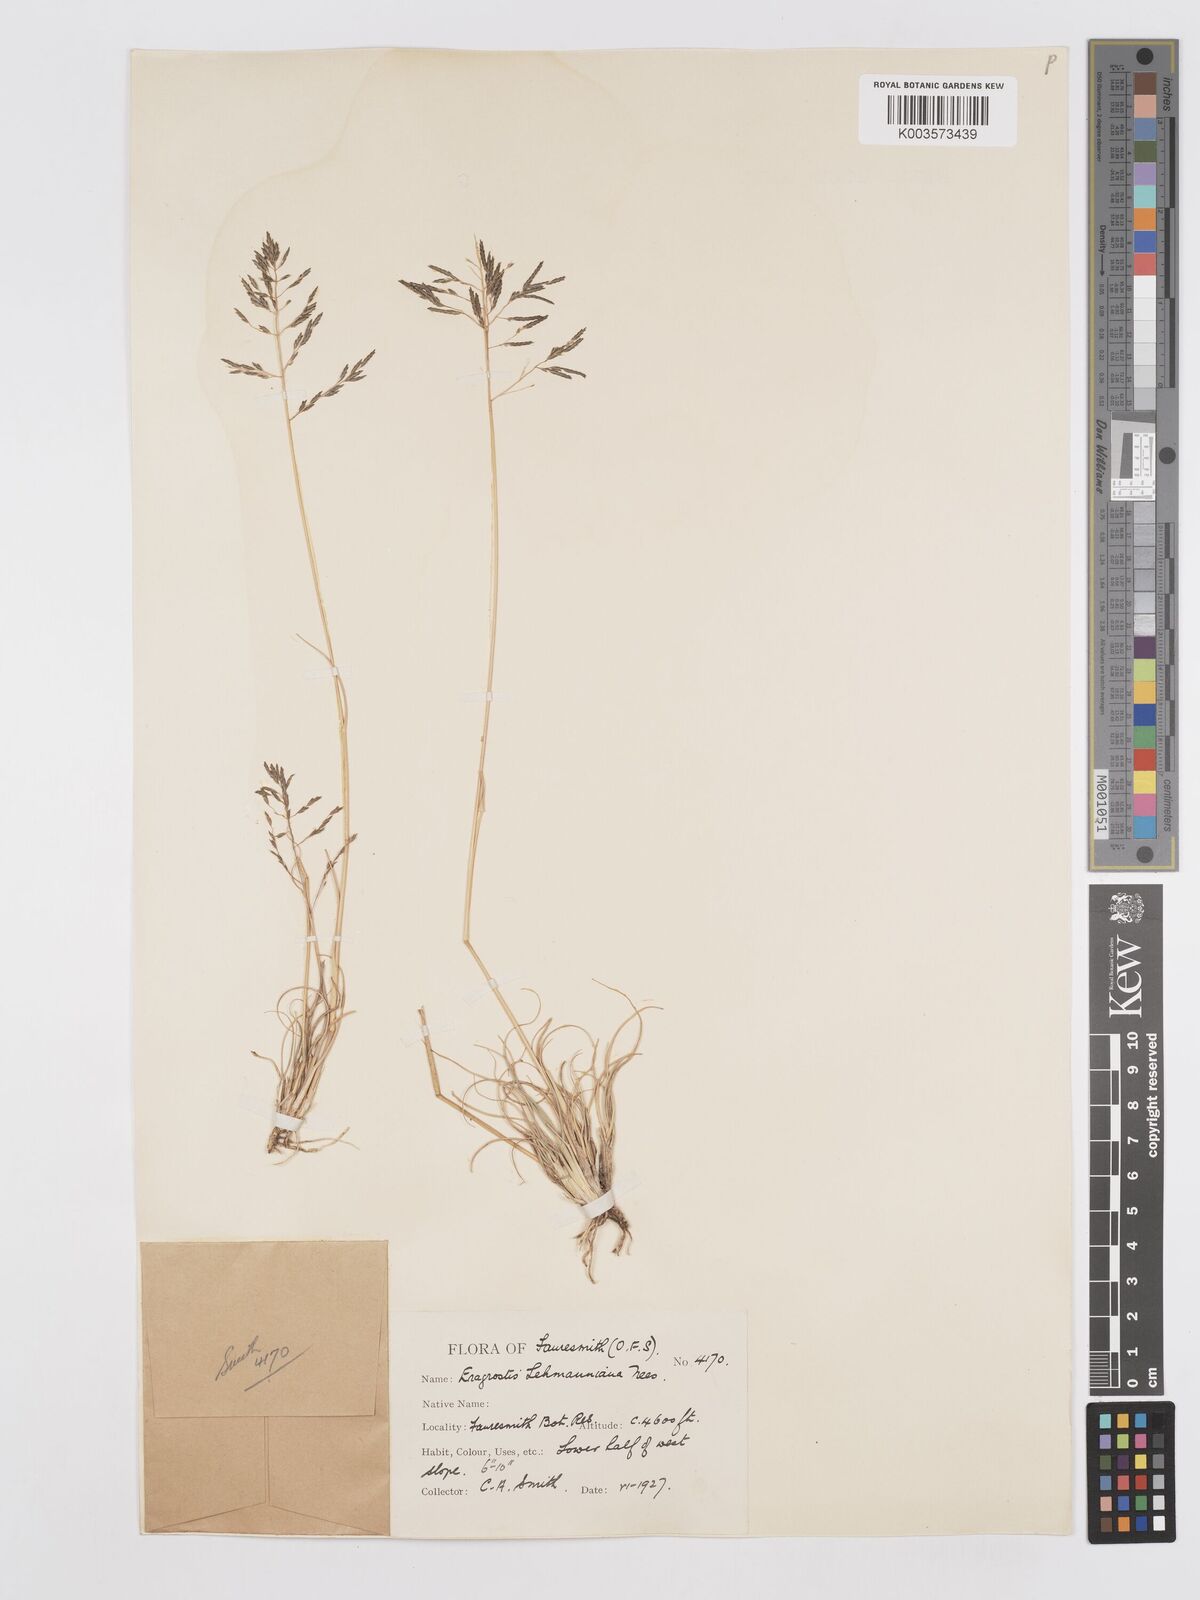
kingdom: Plantae
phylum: Tracheophyta
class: Liliopsida
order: Poales
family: Poaceae
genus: Eragrostis
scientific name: Eragrostis lehmanniana
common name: Lehmann lovegrass
